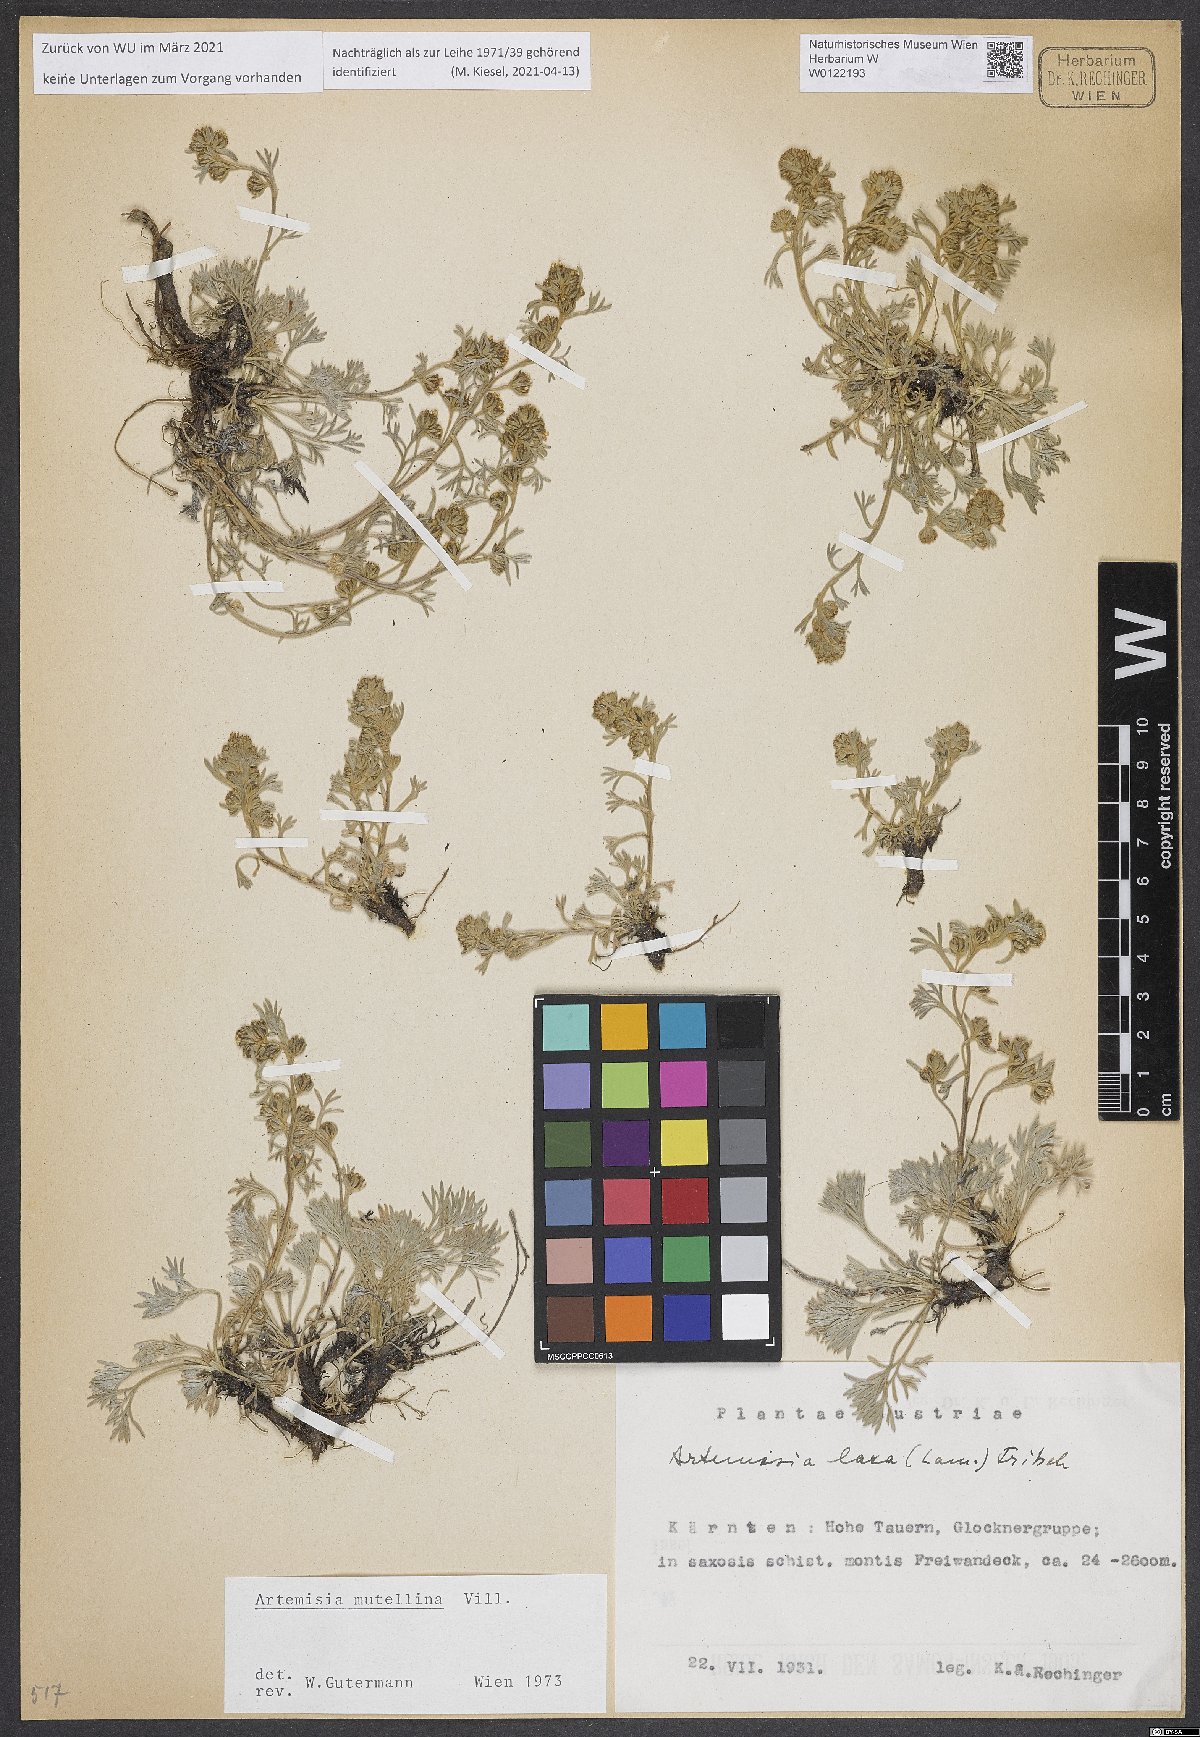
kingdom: Plantae
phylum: Tracheophyta
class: Magnoliopsida
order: Asterales
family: Asteraceae
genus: Artemisia
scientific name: Artemisia mutellina
